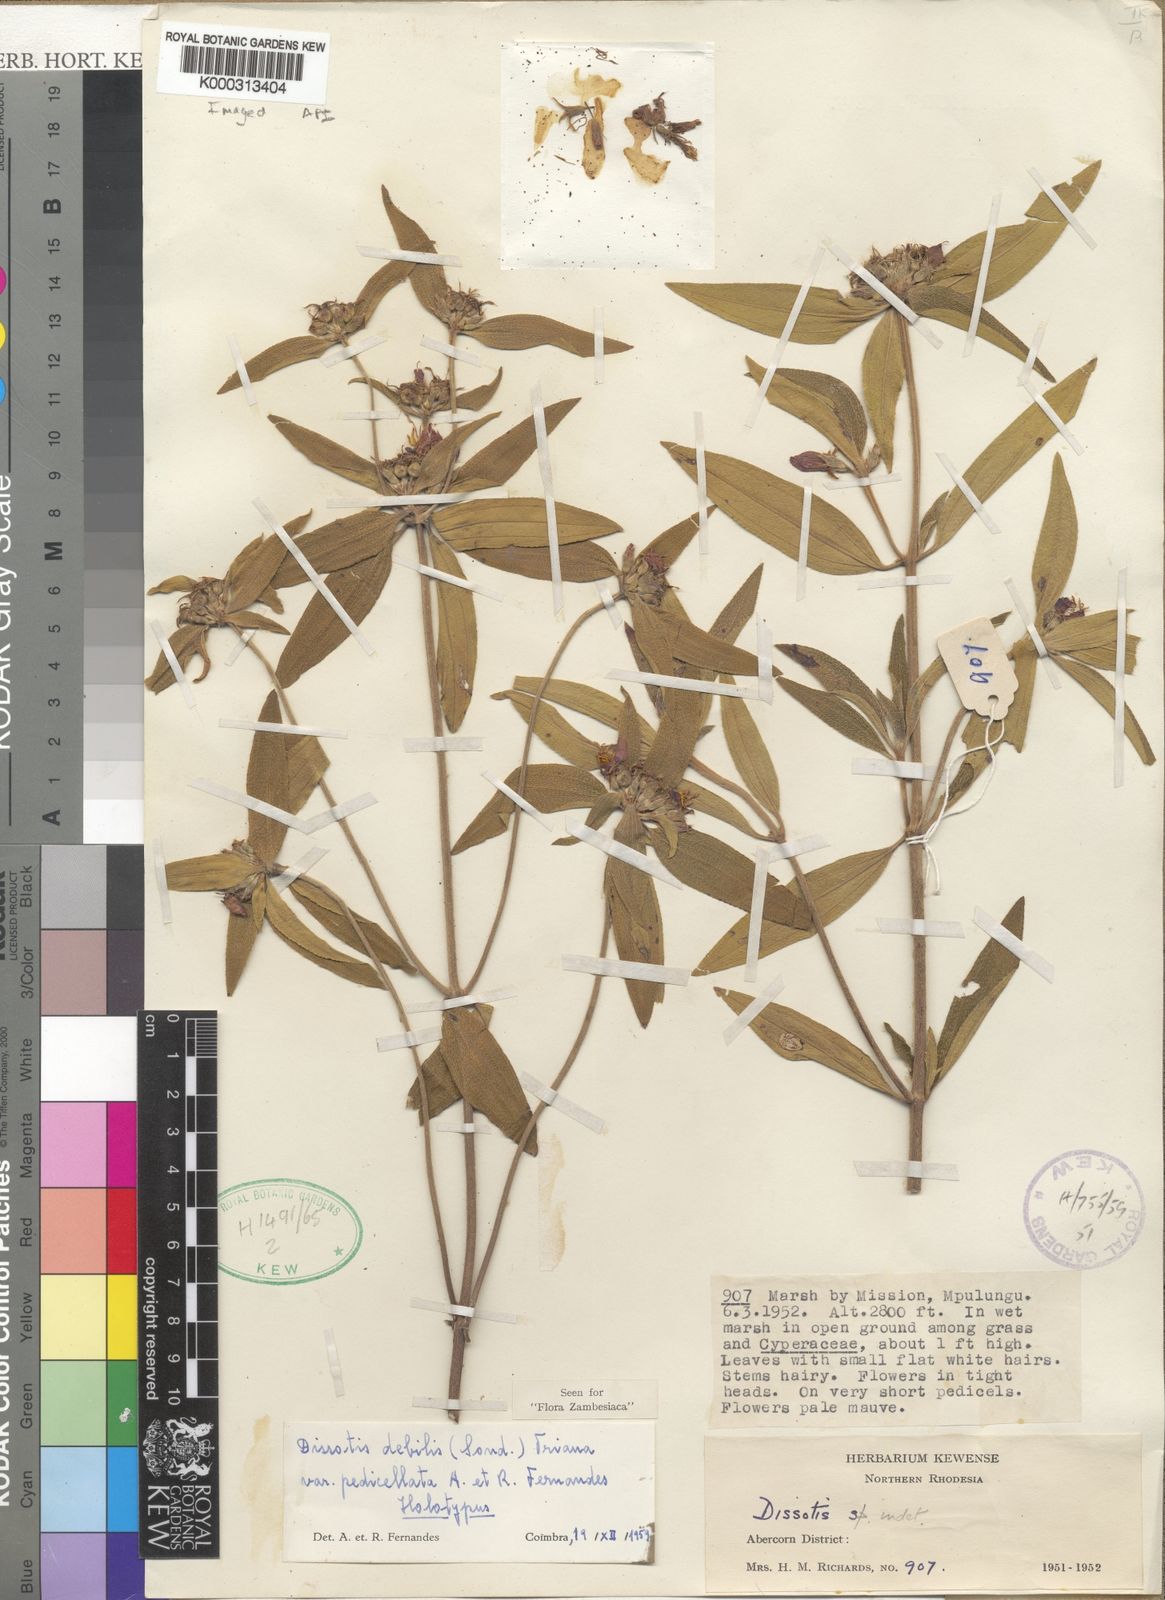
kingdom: Plantae
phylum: Tracheophyta
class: Magnoliopsida
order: Myrtales
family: Melastomataceae
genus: Antherotoma
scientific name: Antherotoma
